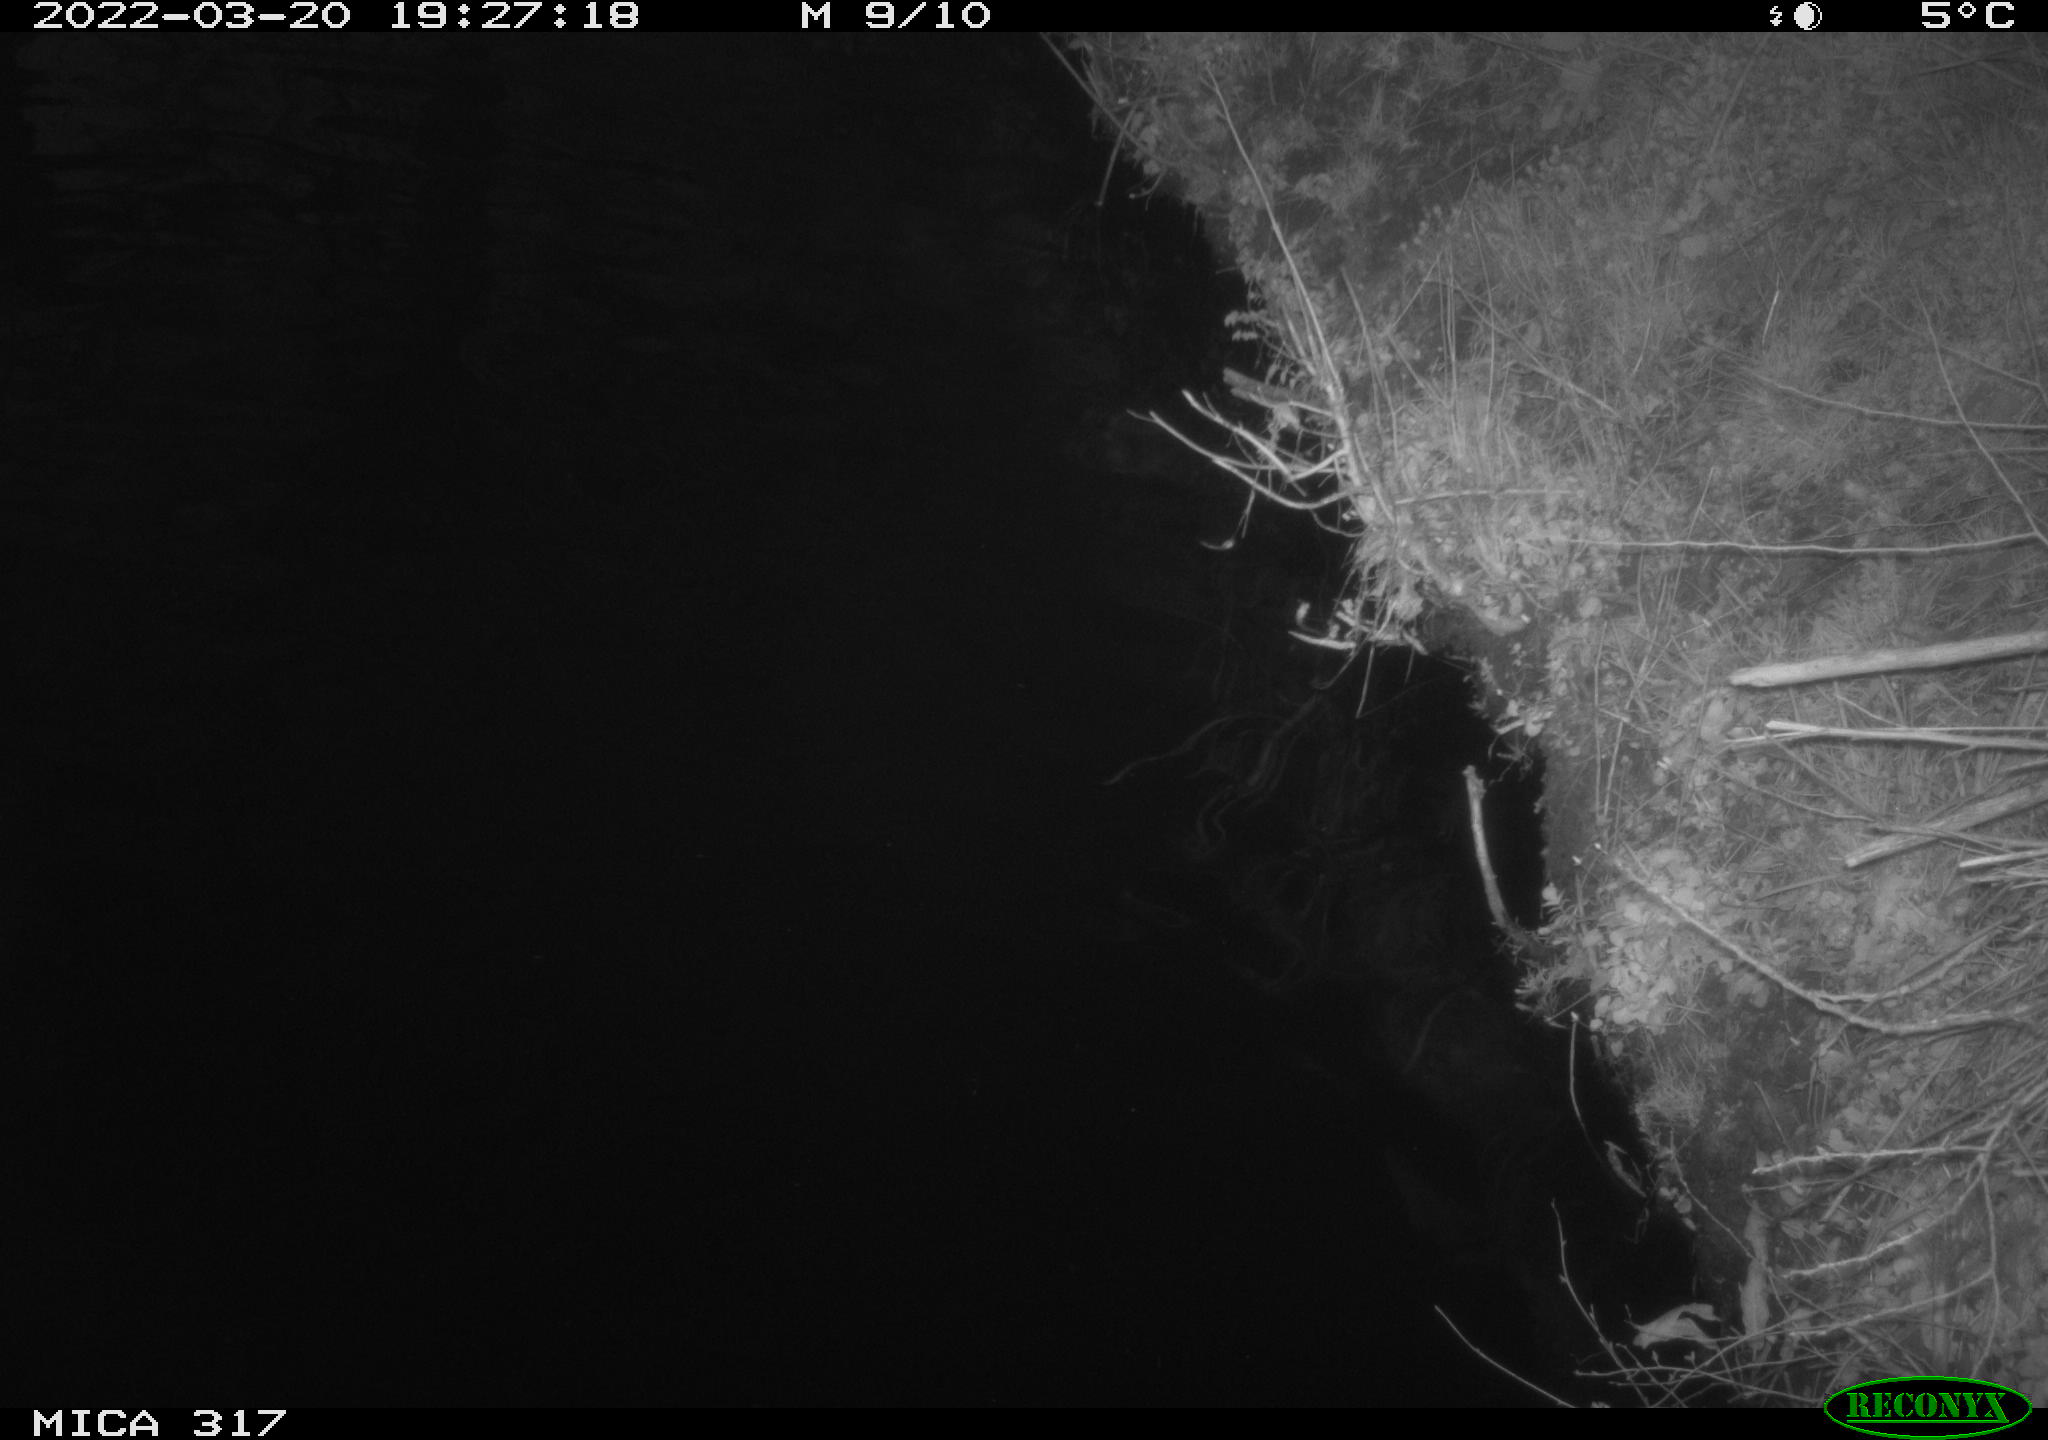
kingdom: Animalia
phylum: Chordata
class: Aves
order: Anseriformes
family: Anatidae
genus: Anas
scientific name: Anas platyrhynchos
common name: Mallard
